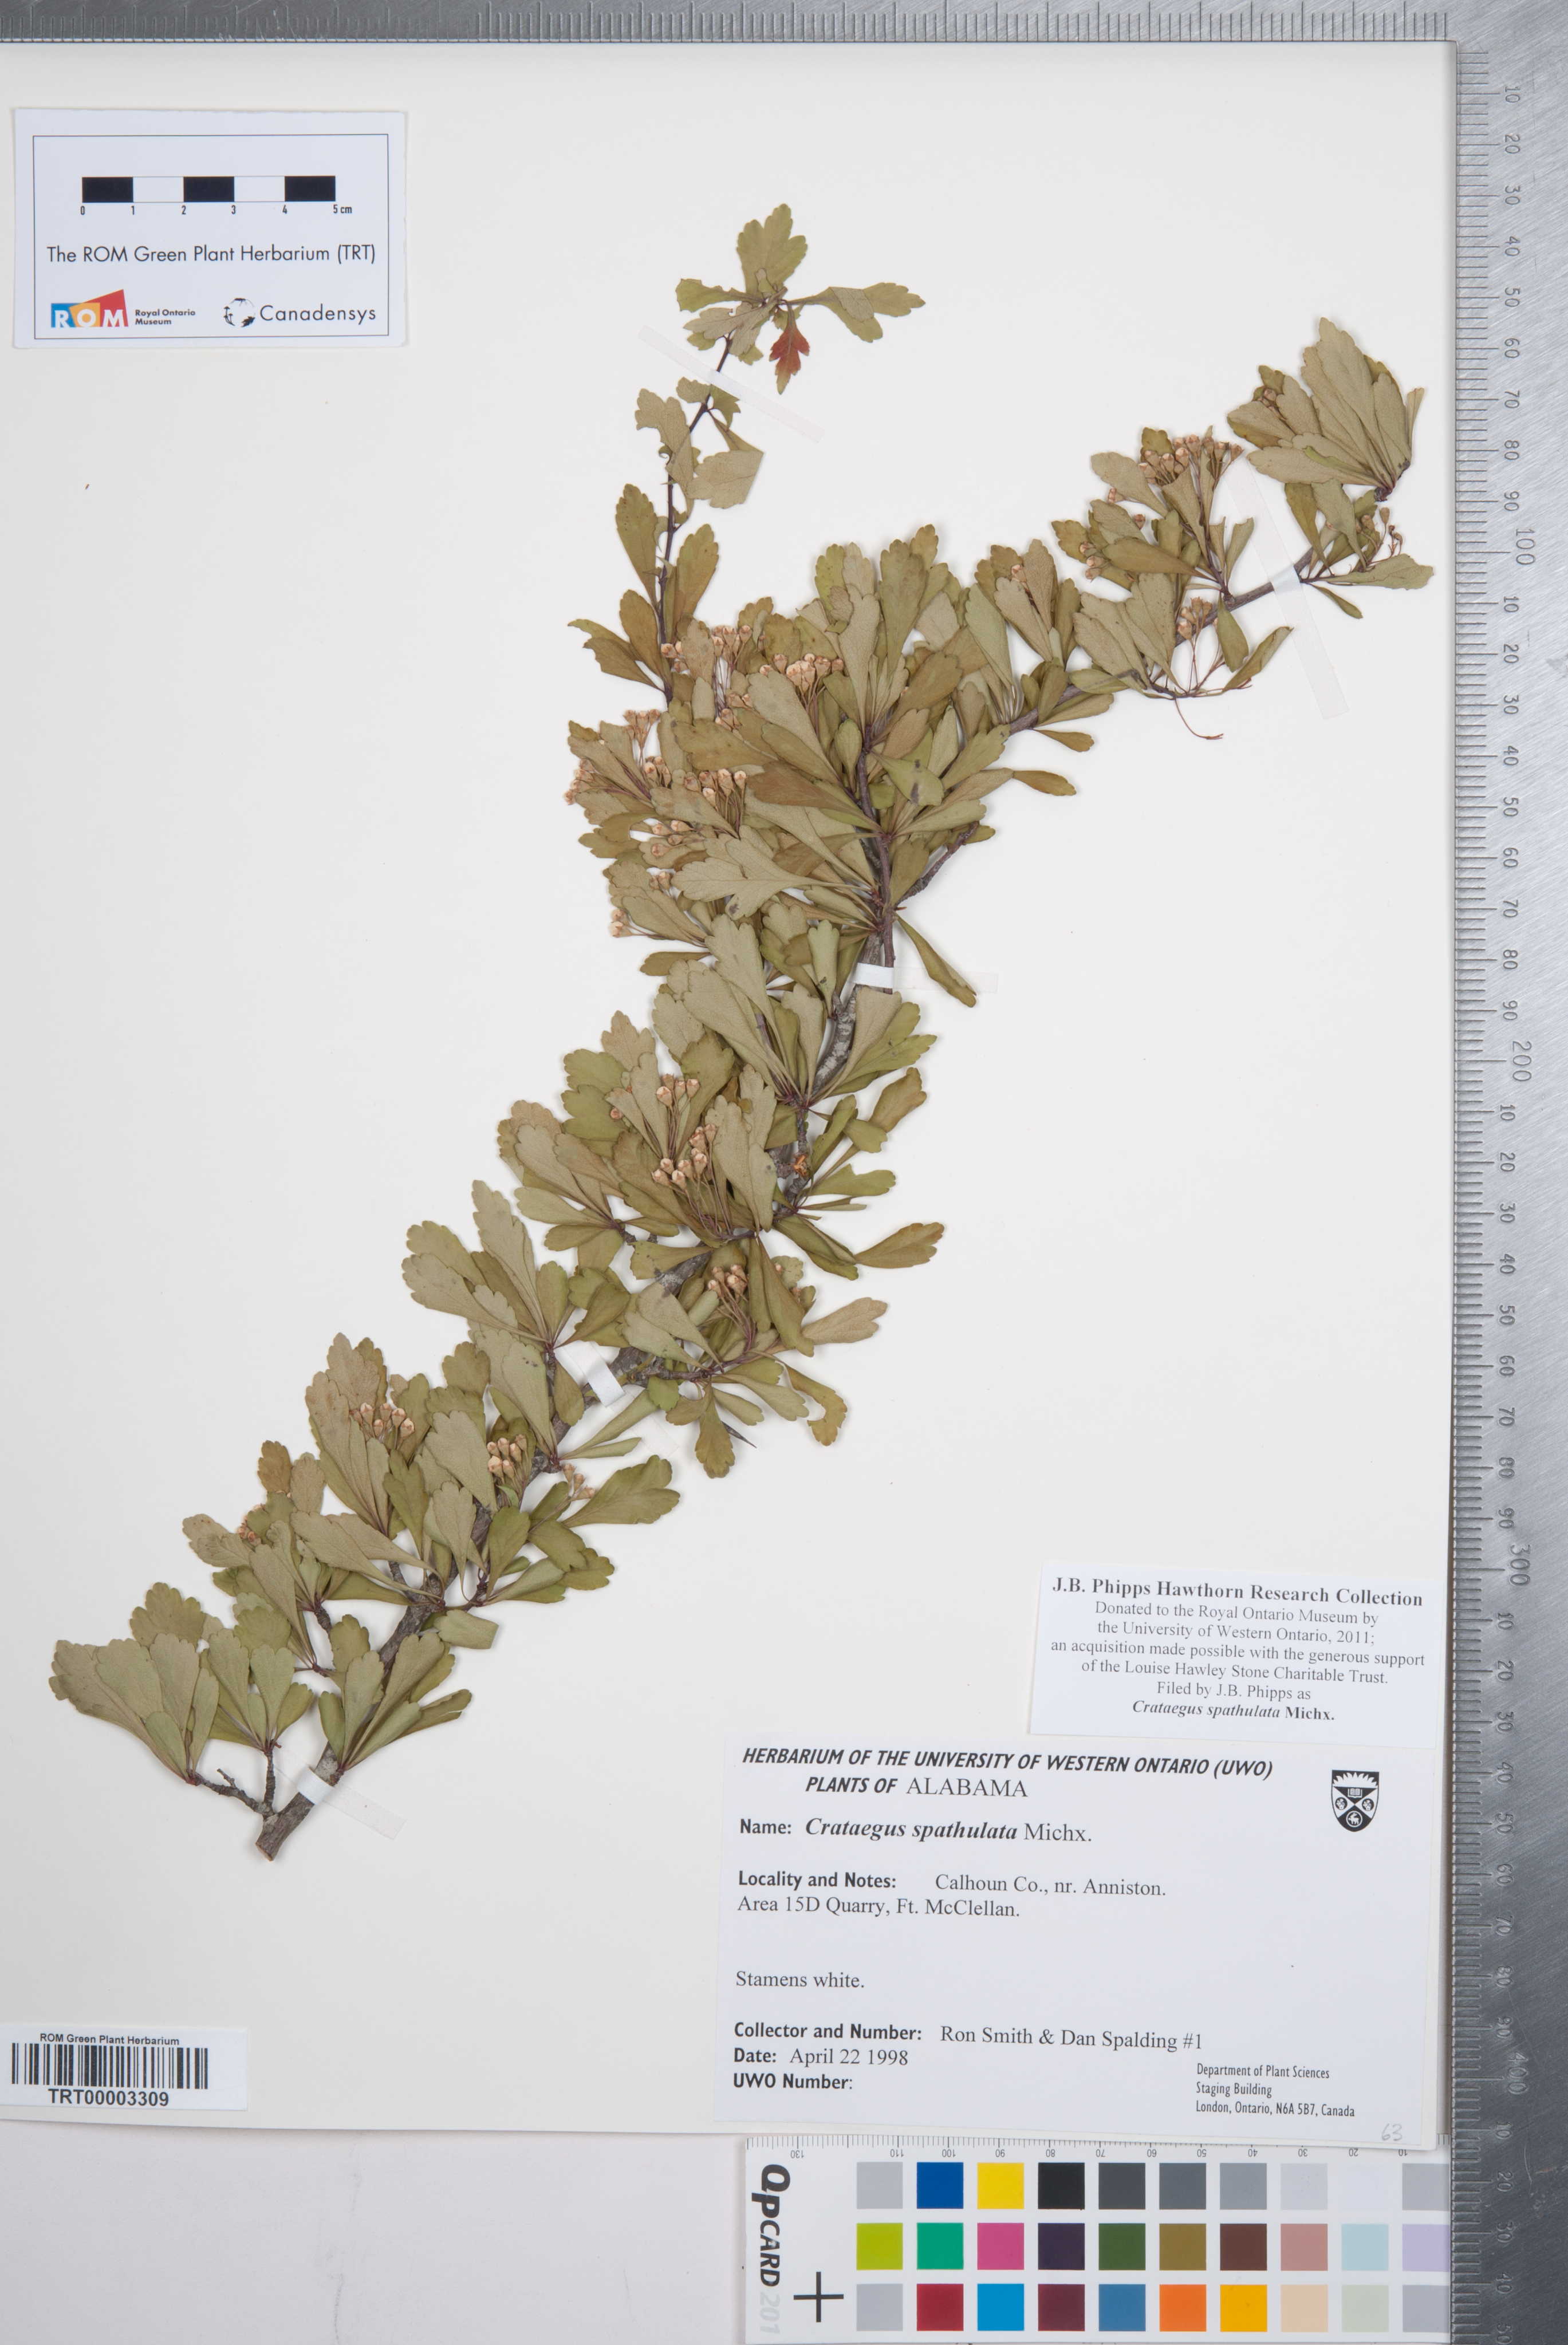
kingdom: Plantae
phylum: Tracheophyta
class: Magnoliopsida
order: Rosales
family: Rosaceae
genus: Crataegus
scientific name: Crataegus spathulata
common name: Littlehip hawthorn
